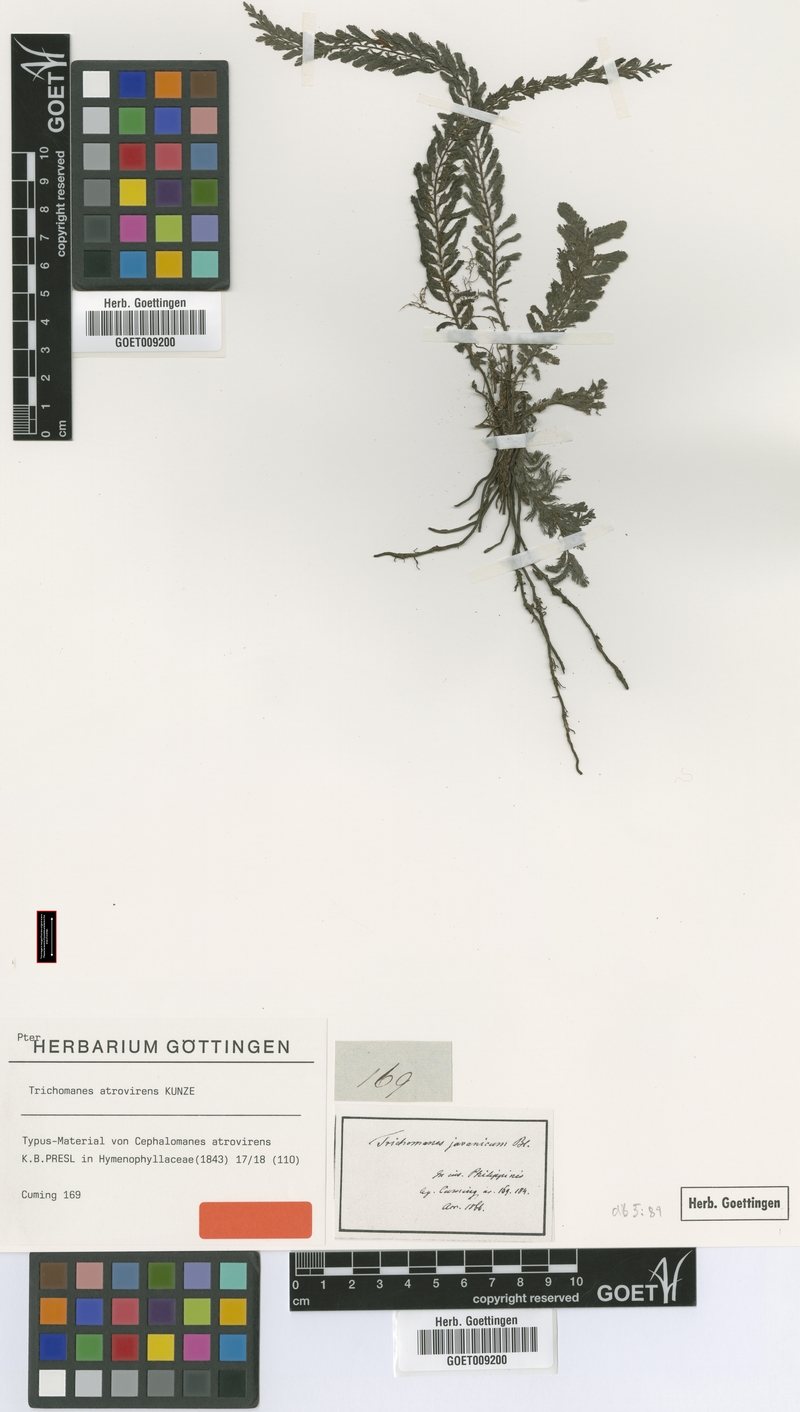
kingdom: Plantae
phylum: Tracheophyta
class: Polypodiopsida
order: Hymenophyllales
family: Hymenophyllaceae
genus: Cephalomanes
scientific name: Cephalomanes atrovirens
